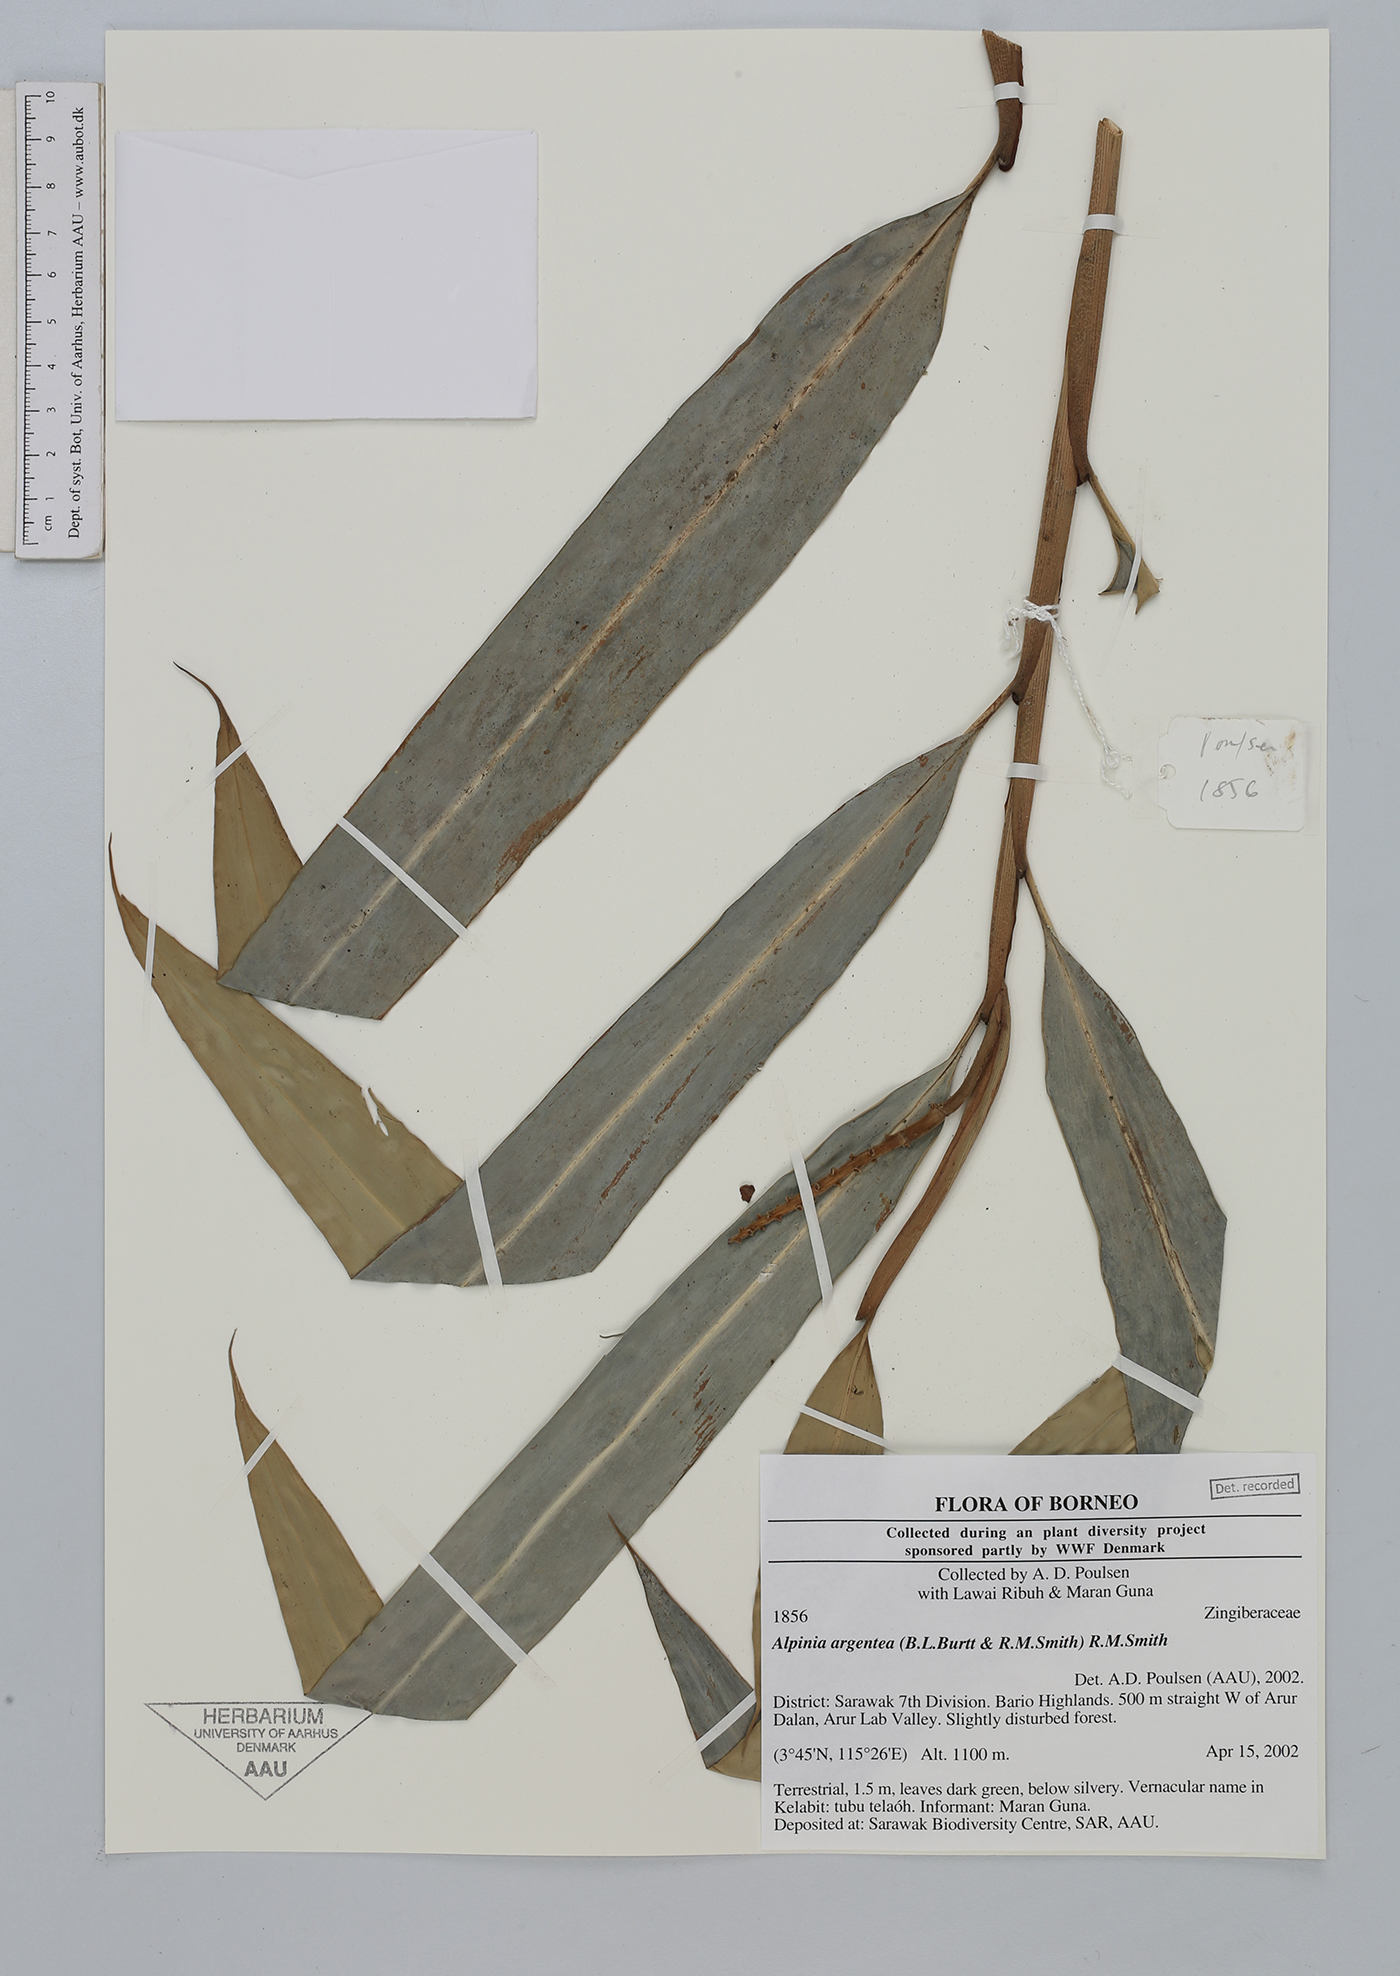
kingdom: Plantae
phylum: Tracheophyta
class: Liliopsida
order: Zingiberales
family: Zingiberaceae
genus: Alpinia
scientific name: Alpinia argentea
